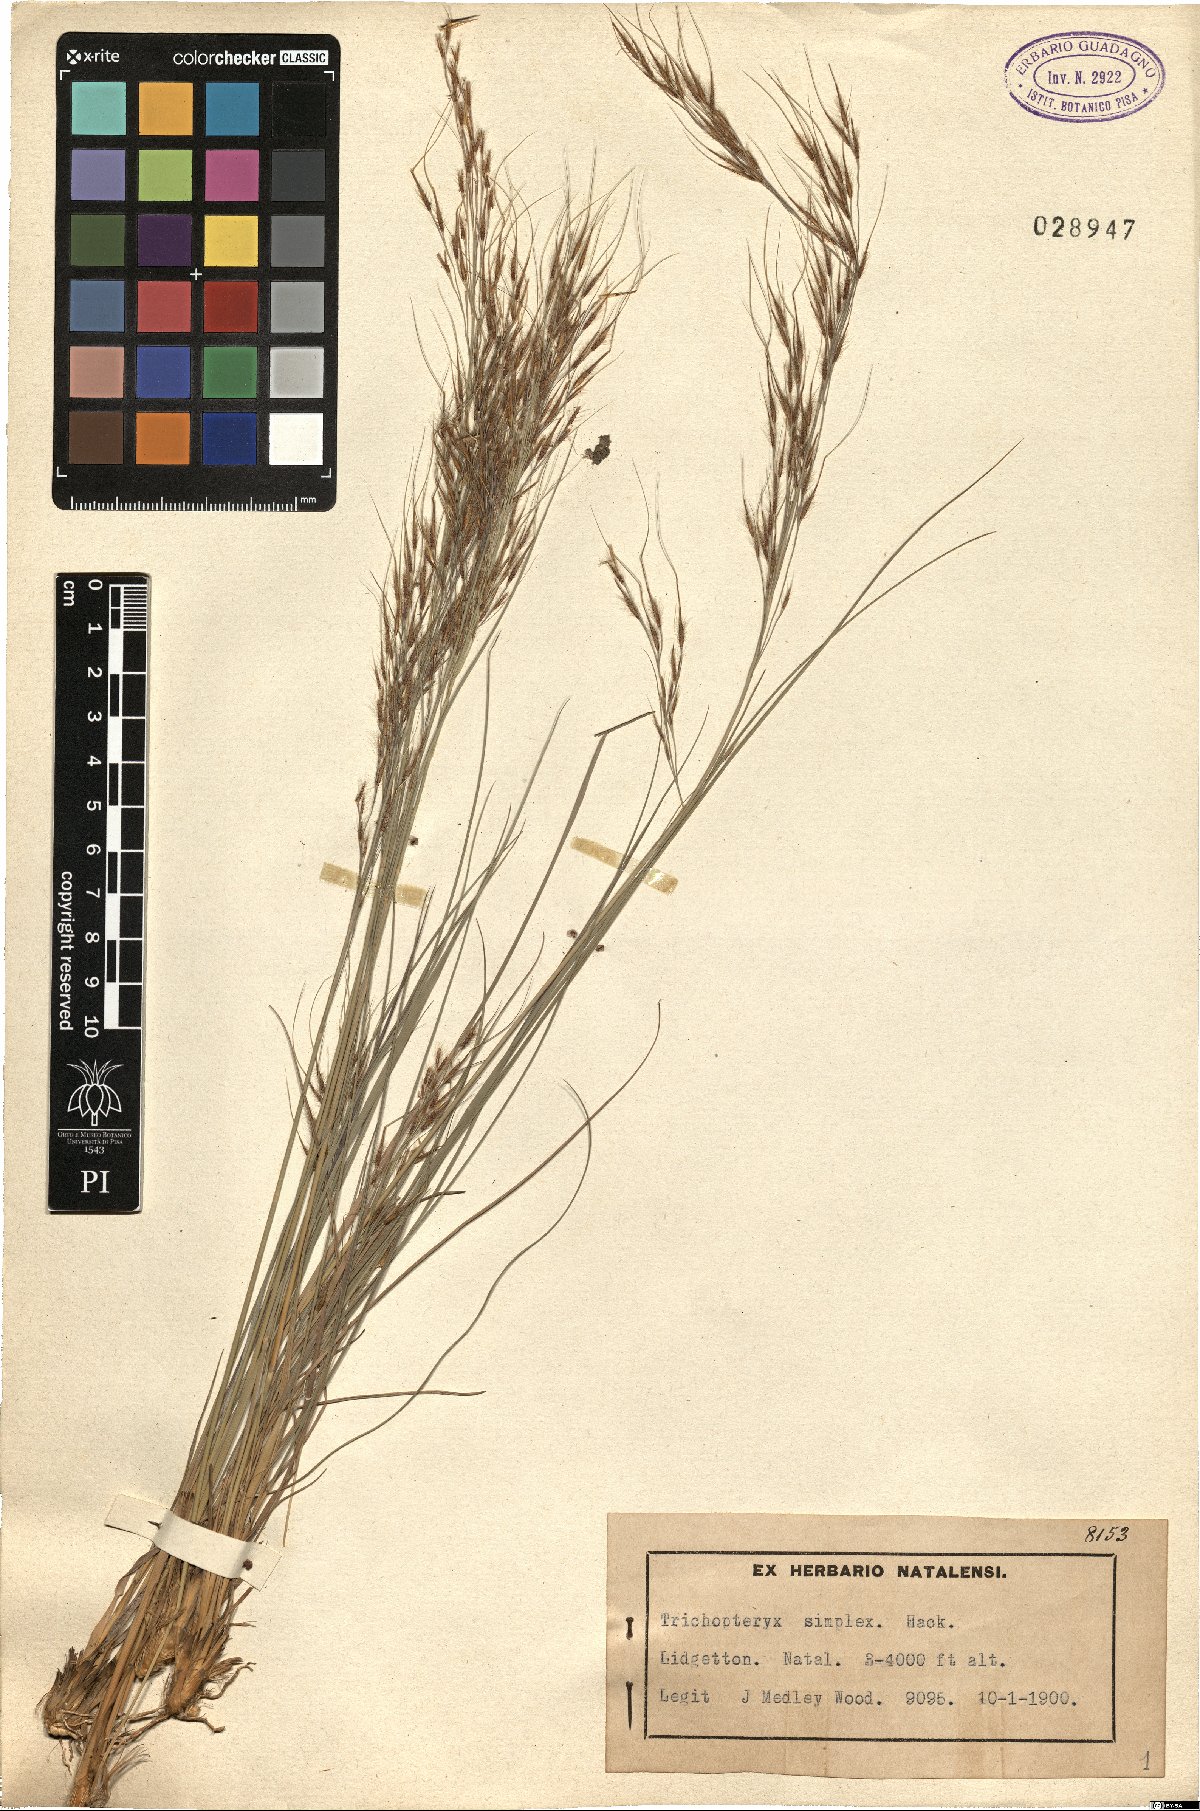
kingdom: Plantae
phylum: Tracheophyta
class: Liliopsida
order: Poales
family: Poaceae
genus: Trichopteryx
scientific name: Trichopteryx simplex
